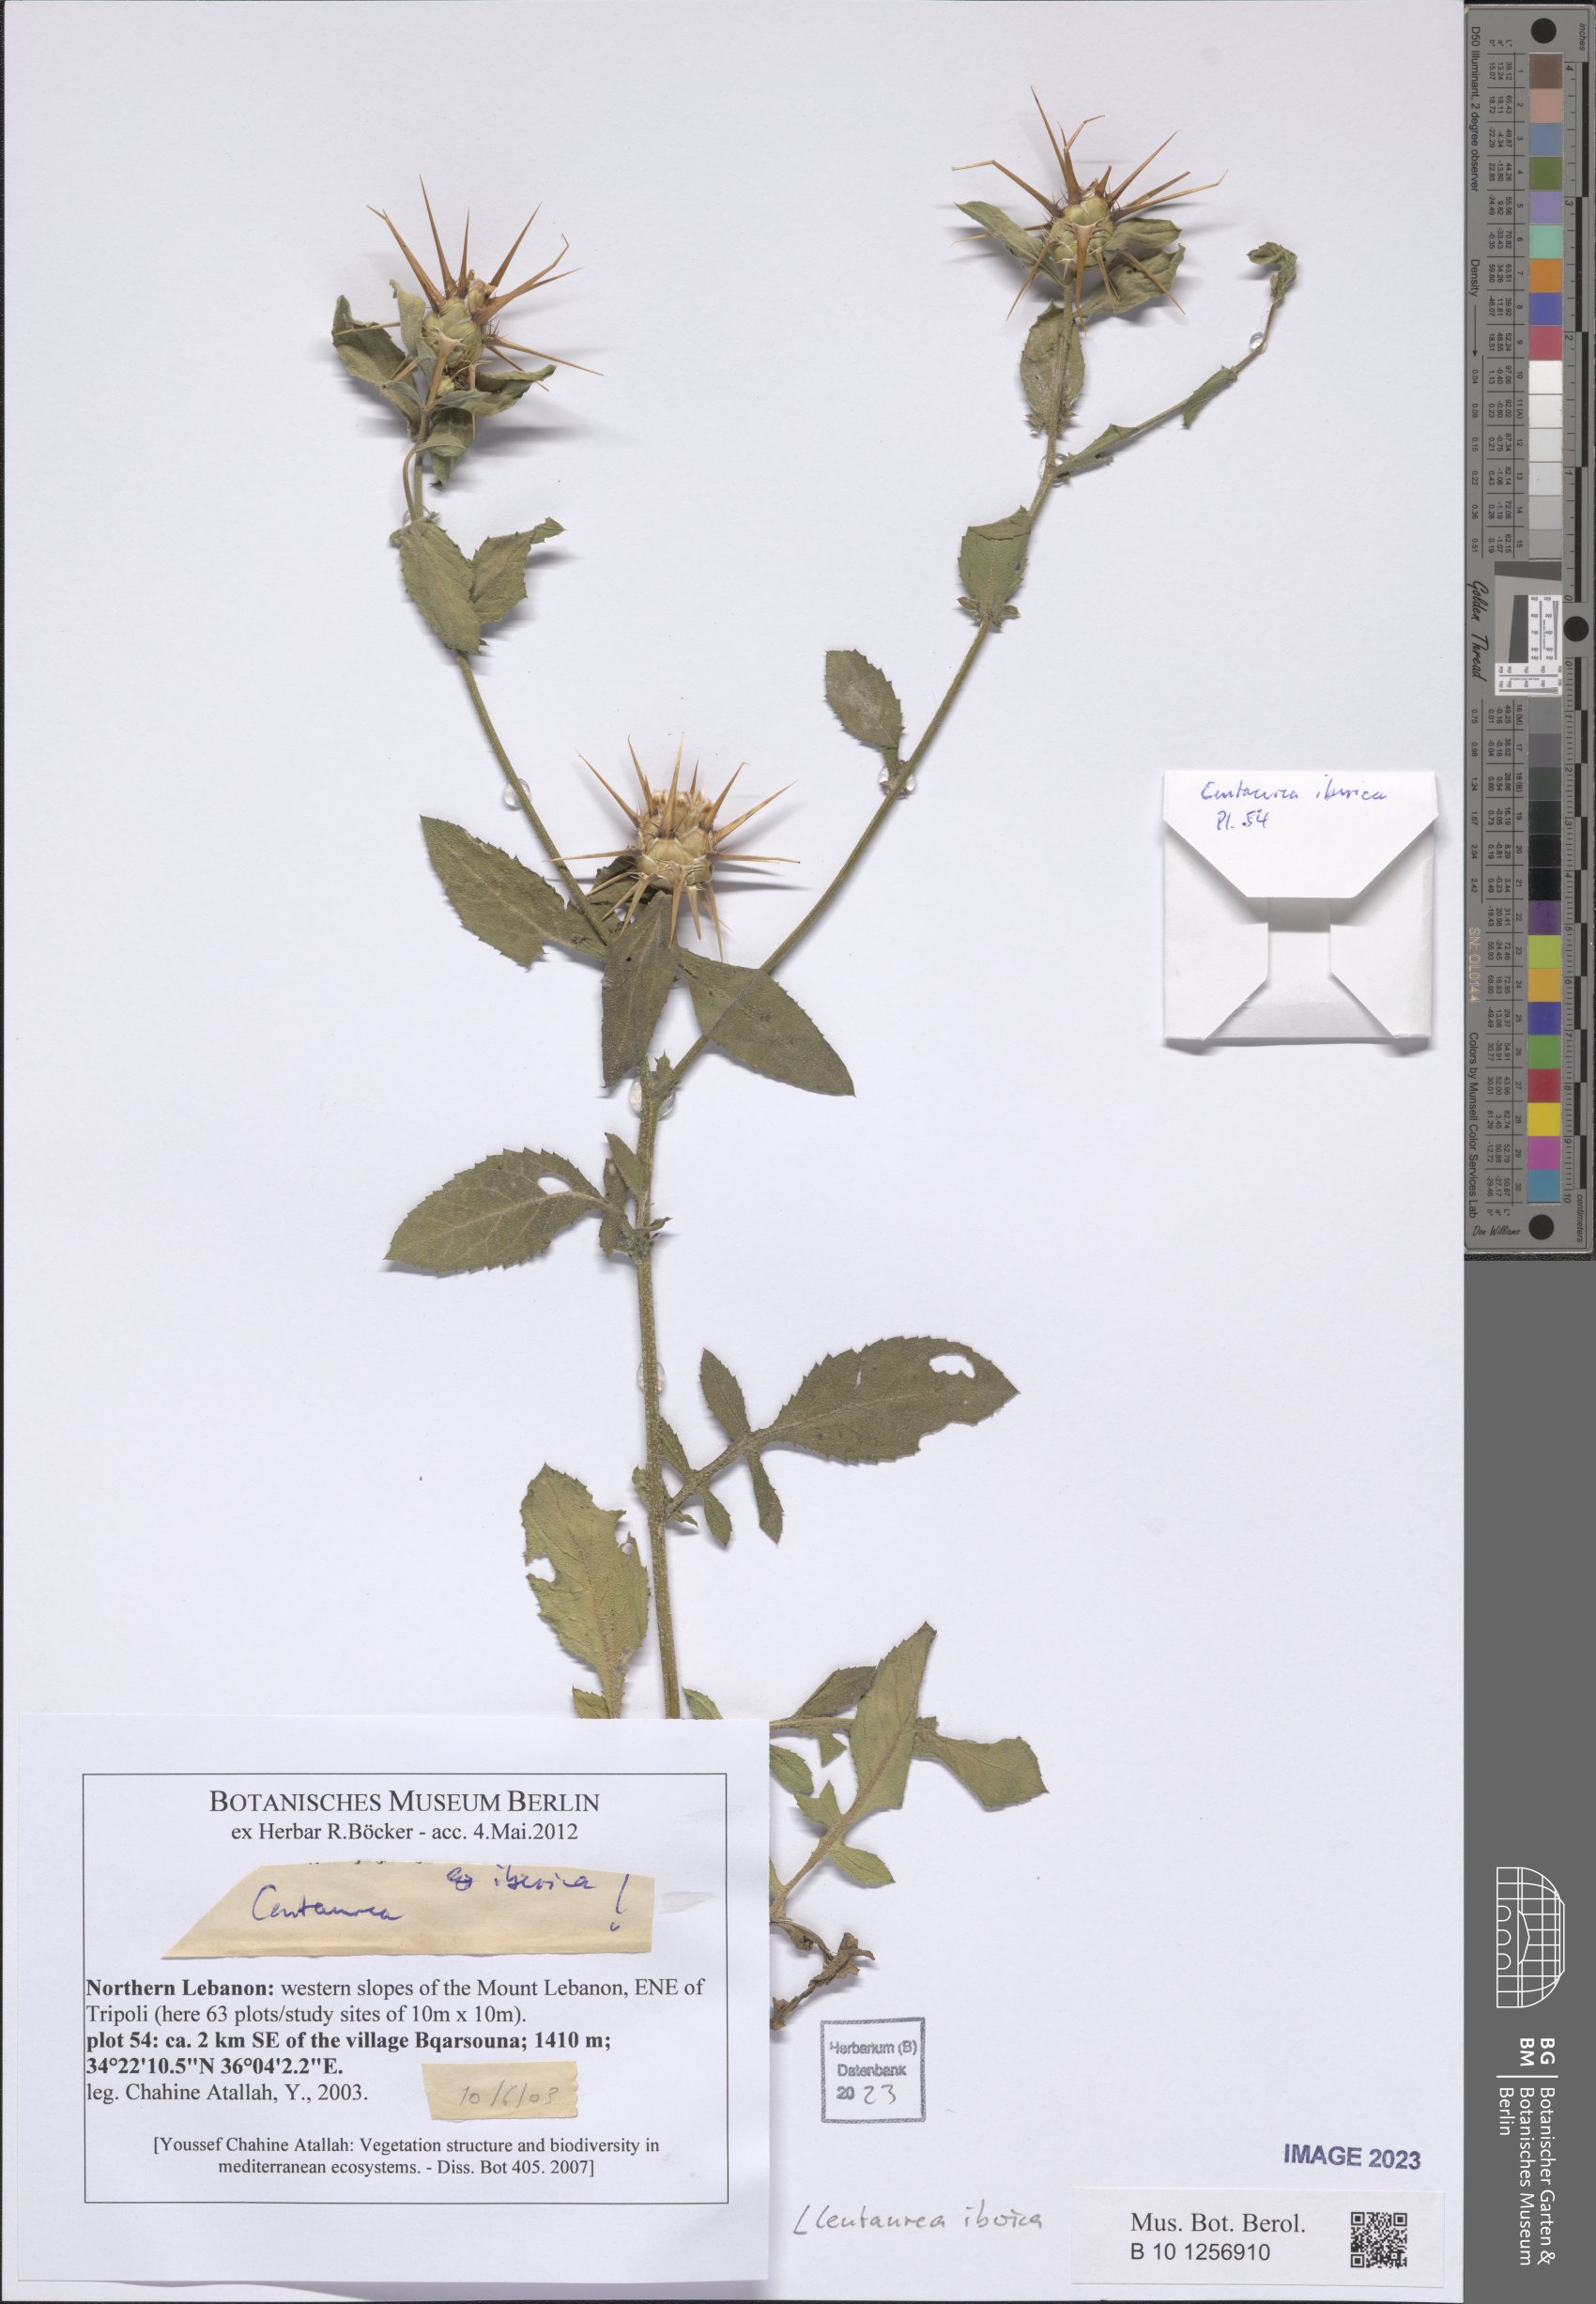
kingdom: Plantae
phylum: Tracheophyta
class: Magnoliopsida
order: Asterales
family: Asteraceae
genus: Centaurea
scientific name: Centaurea iberica
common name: Iberian knapweed
